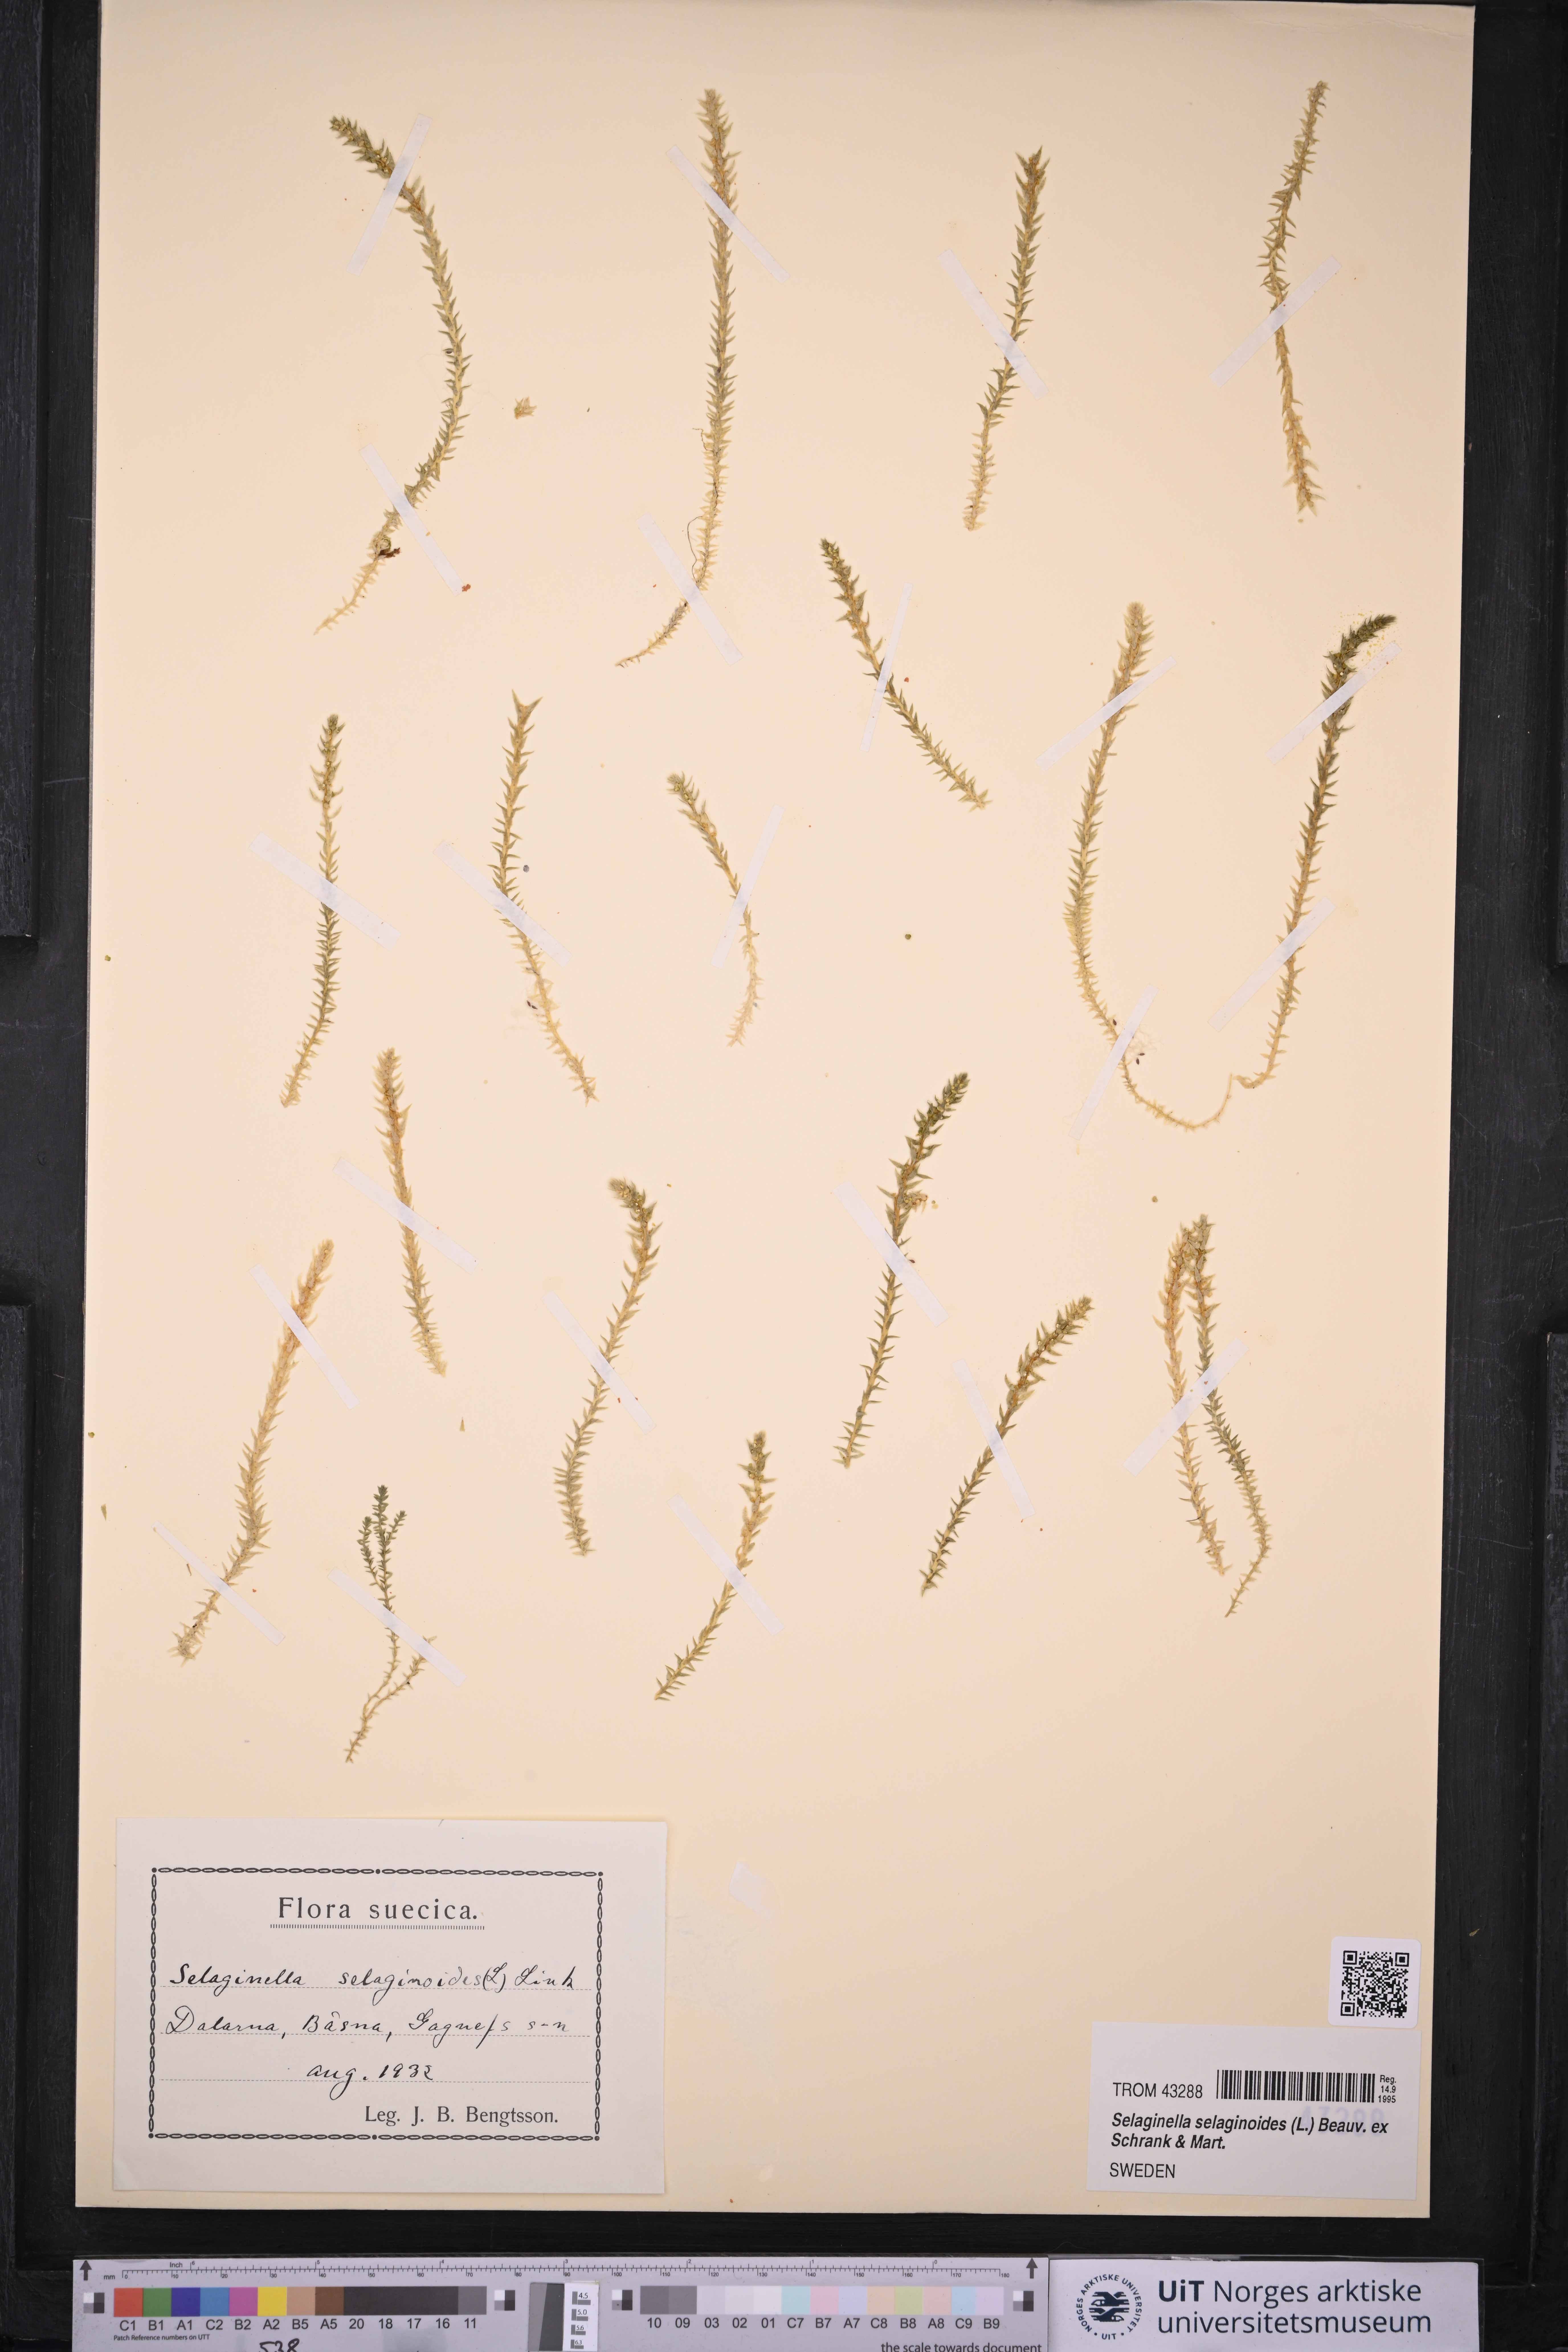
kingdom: Plantae
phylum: Tracheophyta
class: Lycopodiopsida
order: Selaginellales
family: Selaginellaceae
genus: Selaginella
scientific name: Selaginella selaginoides
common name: Prickly mountain-moss
